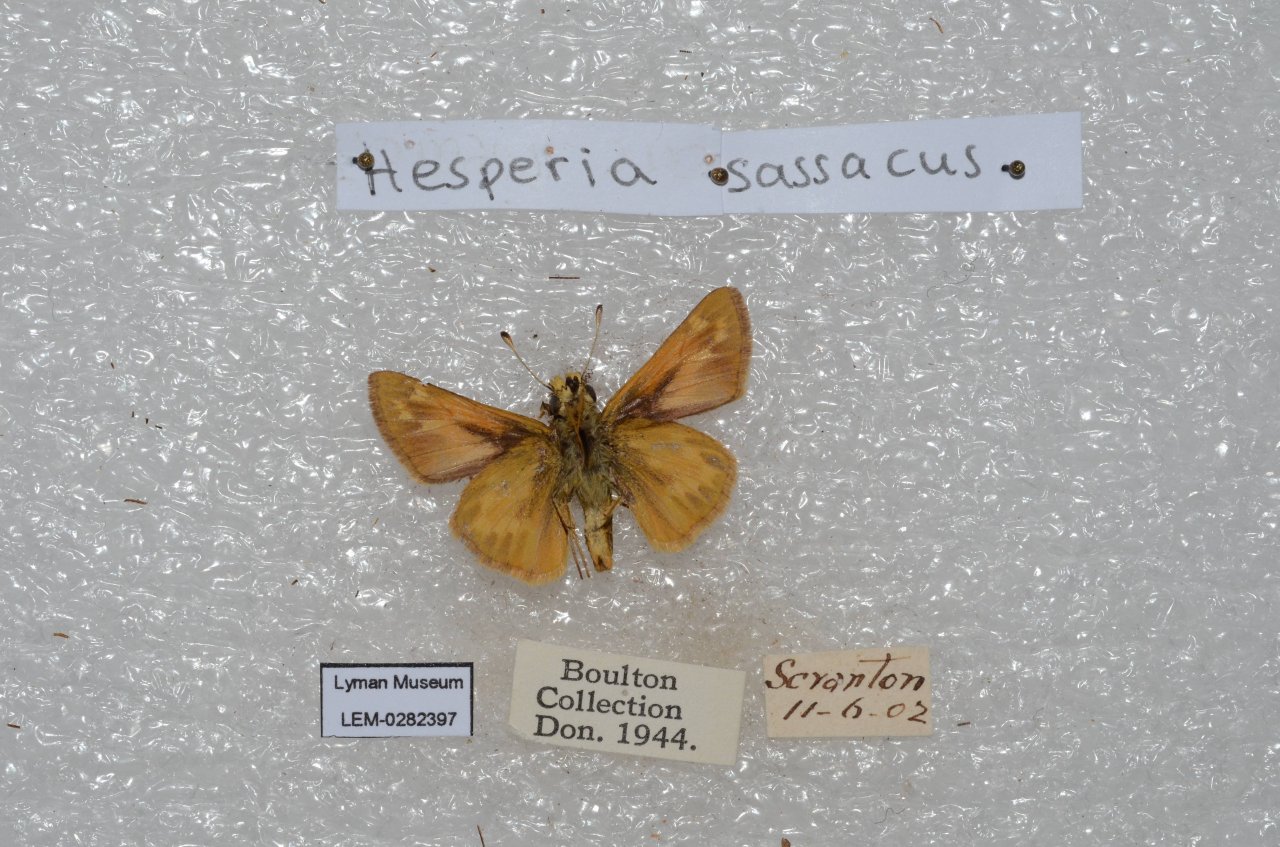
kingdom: Animalia
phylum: Arthropoda
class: Insecta
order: Lepidoptera
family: Hesperiidae
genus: Hesperia
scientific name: Hesperia sassacus
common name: Sassacus Skipper
